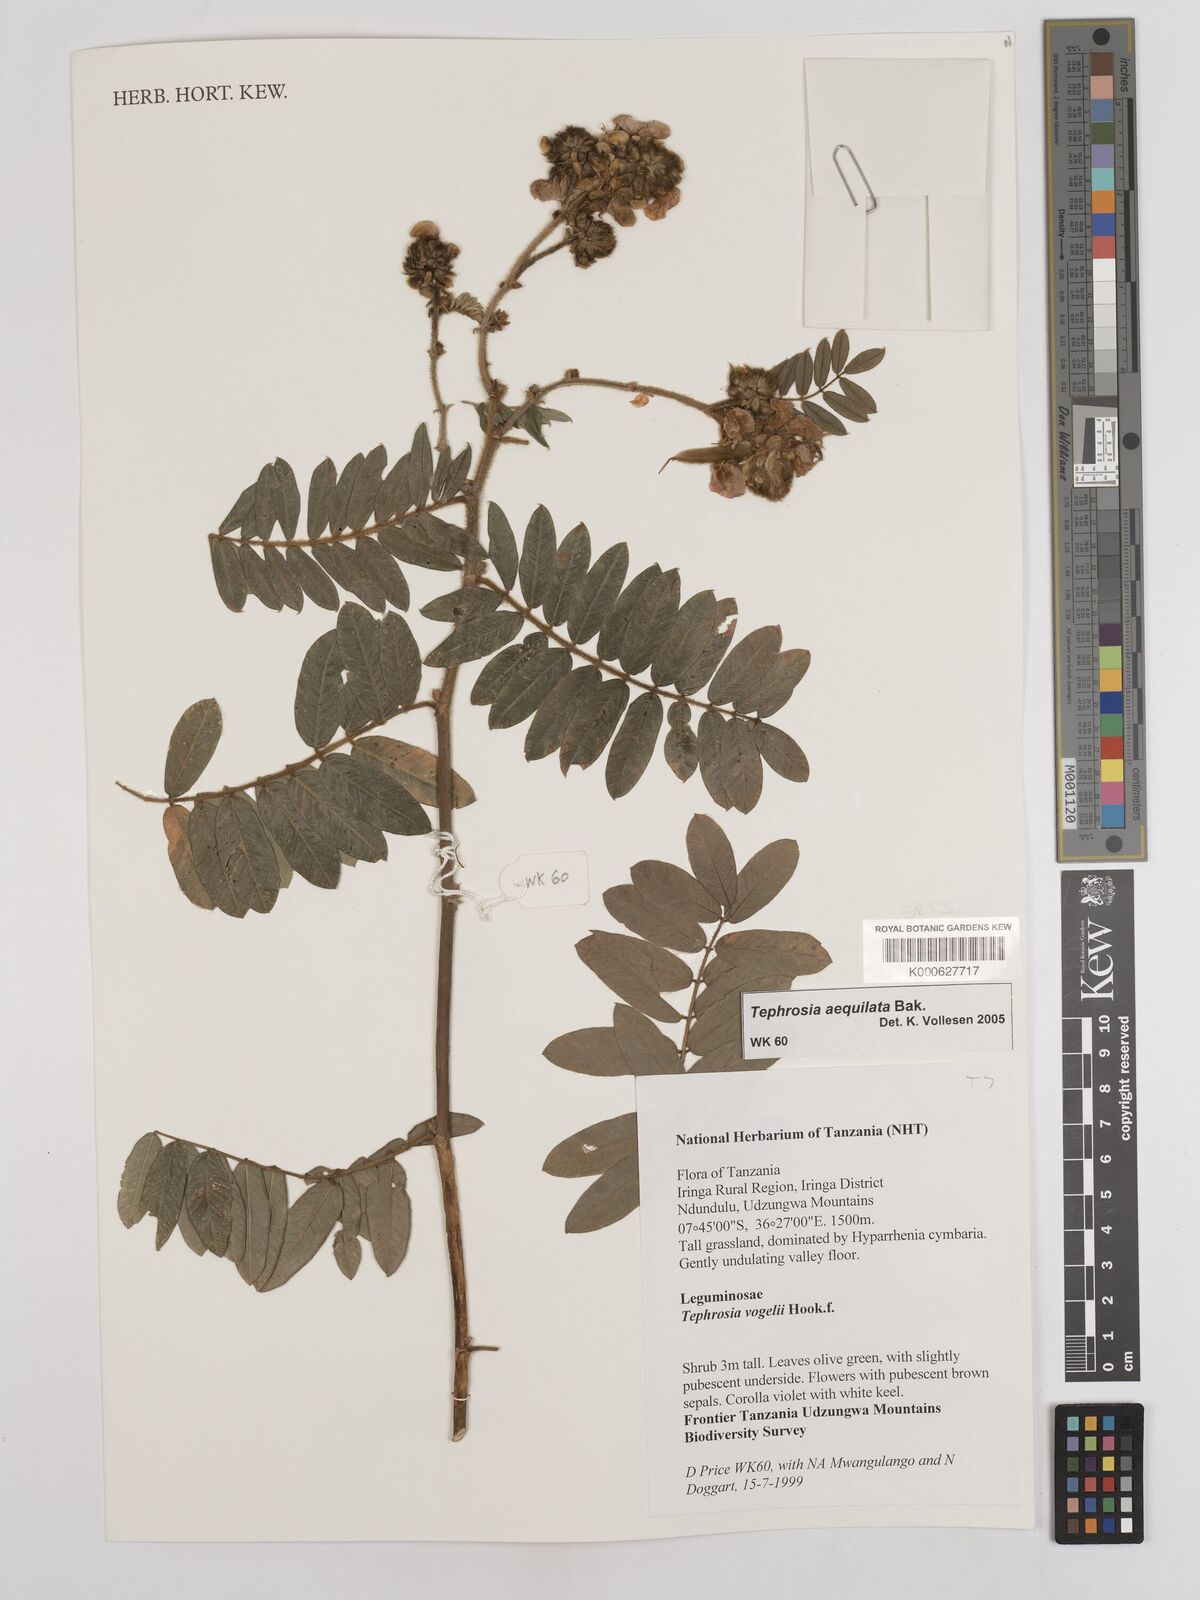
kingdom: Plantae
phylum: Tracheophyta
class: Magnoliopsida
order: Fabales
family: Fabaceae
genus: Tephrosia
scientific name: Tephrosia aequilata
